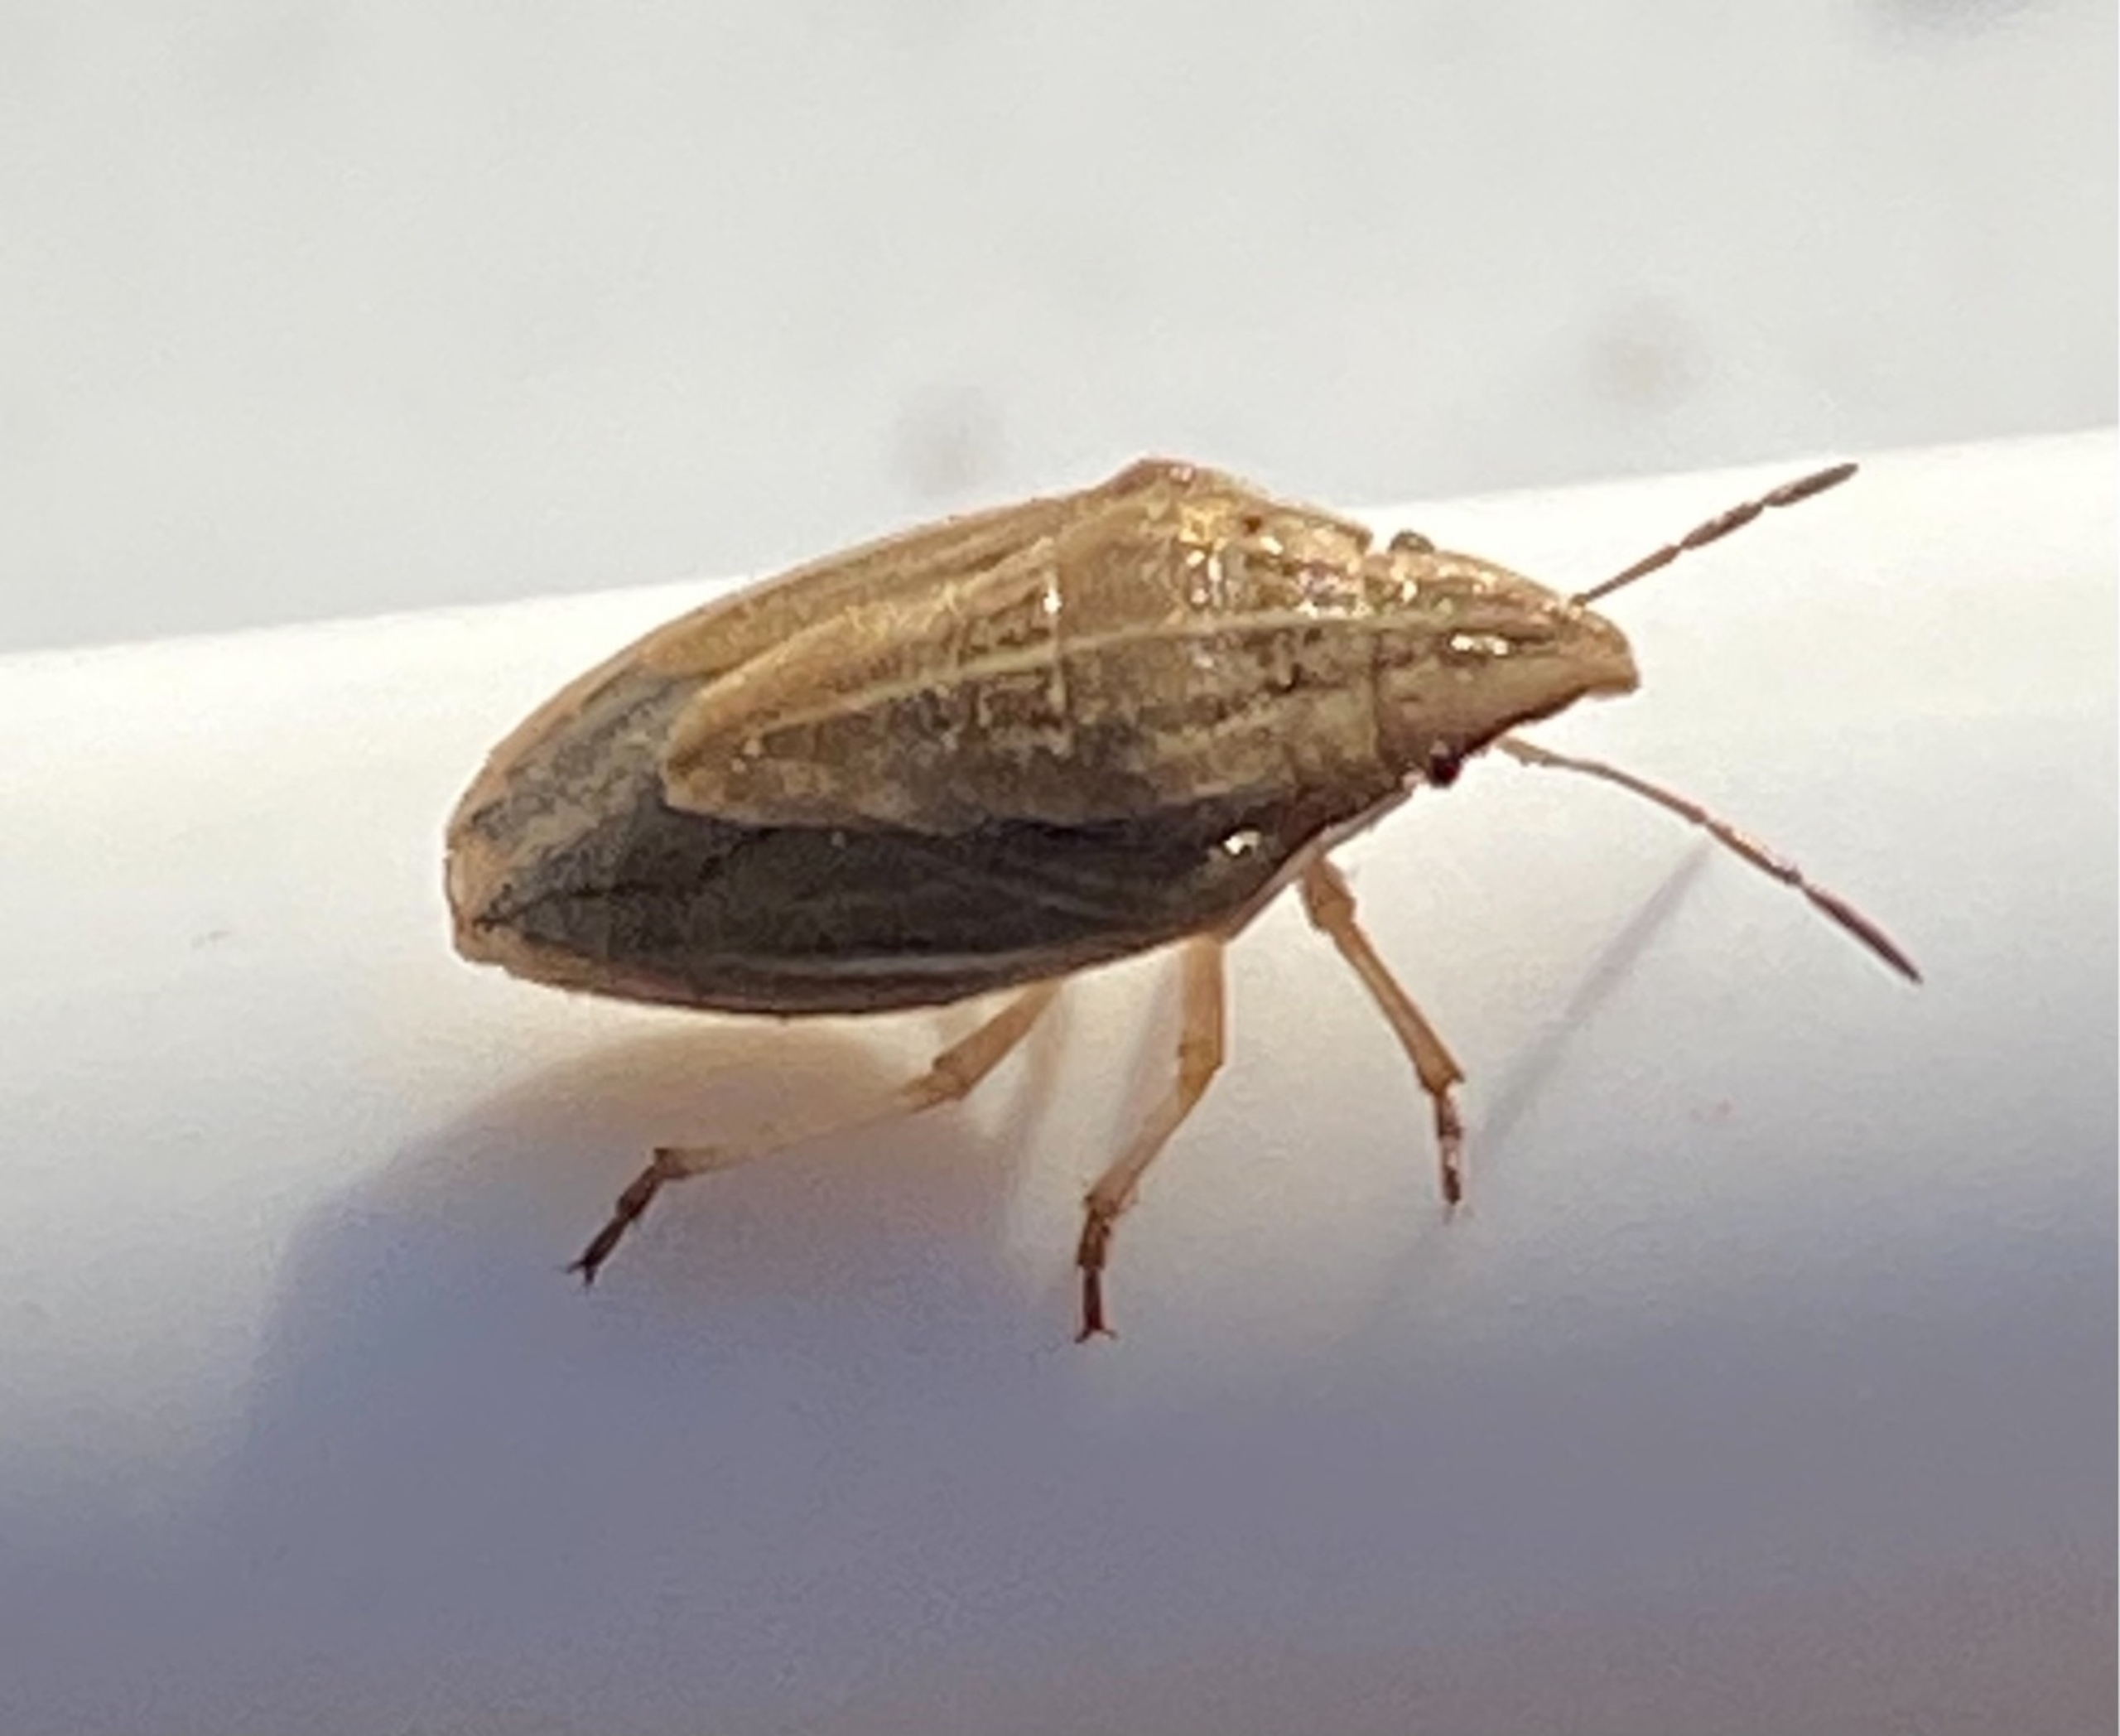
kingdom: Animalia
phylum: Arthropoda
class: Insecta
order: Hemiptera
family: Pentatomidae
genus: Aelia
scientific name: Aelia acuminata
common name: Almindelig bispetæge
